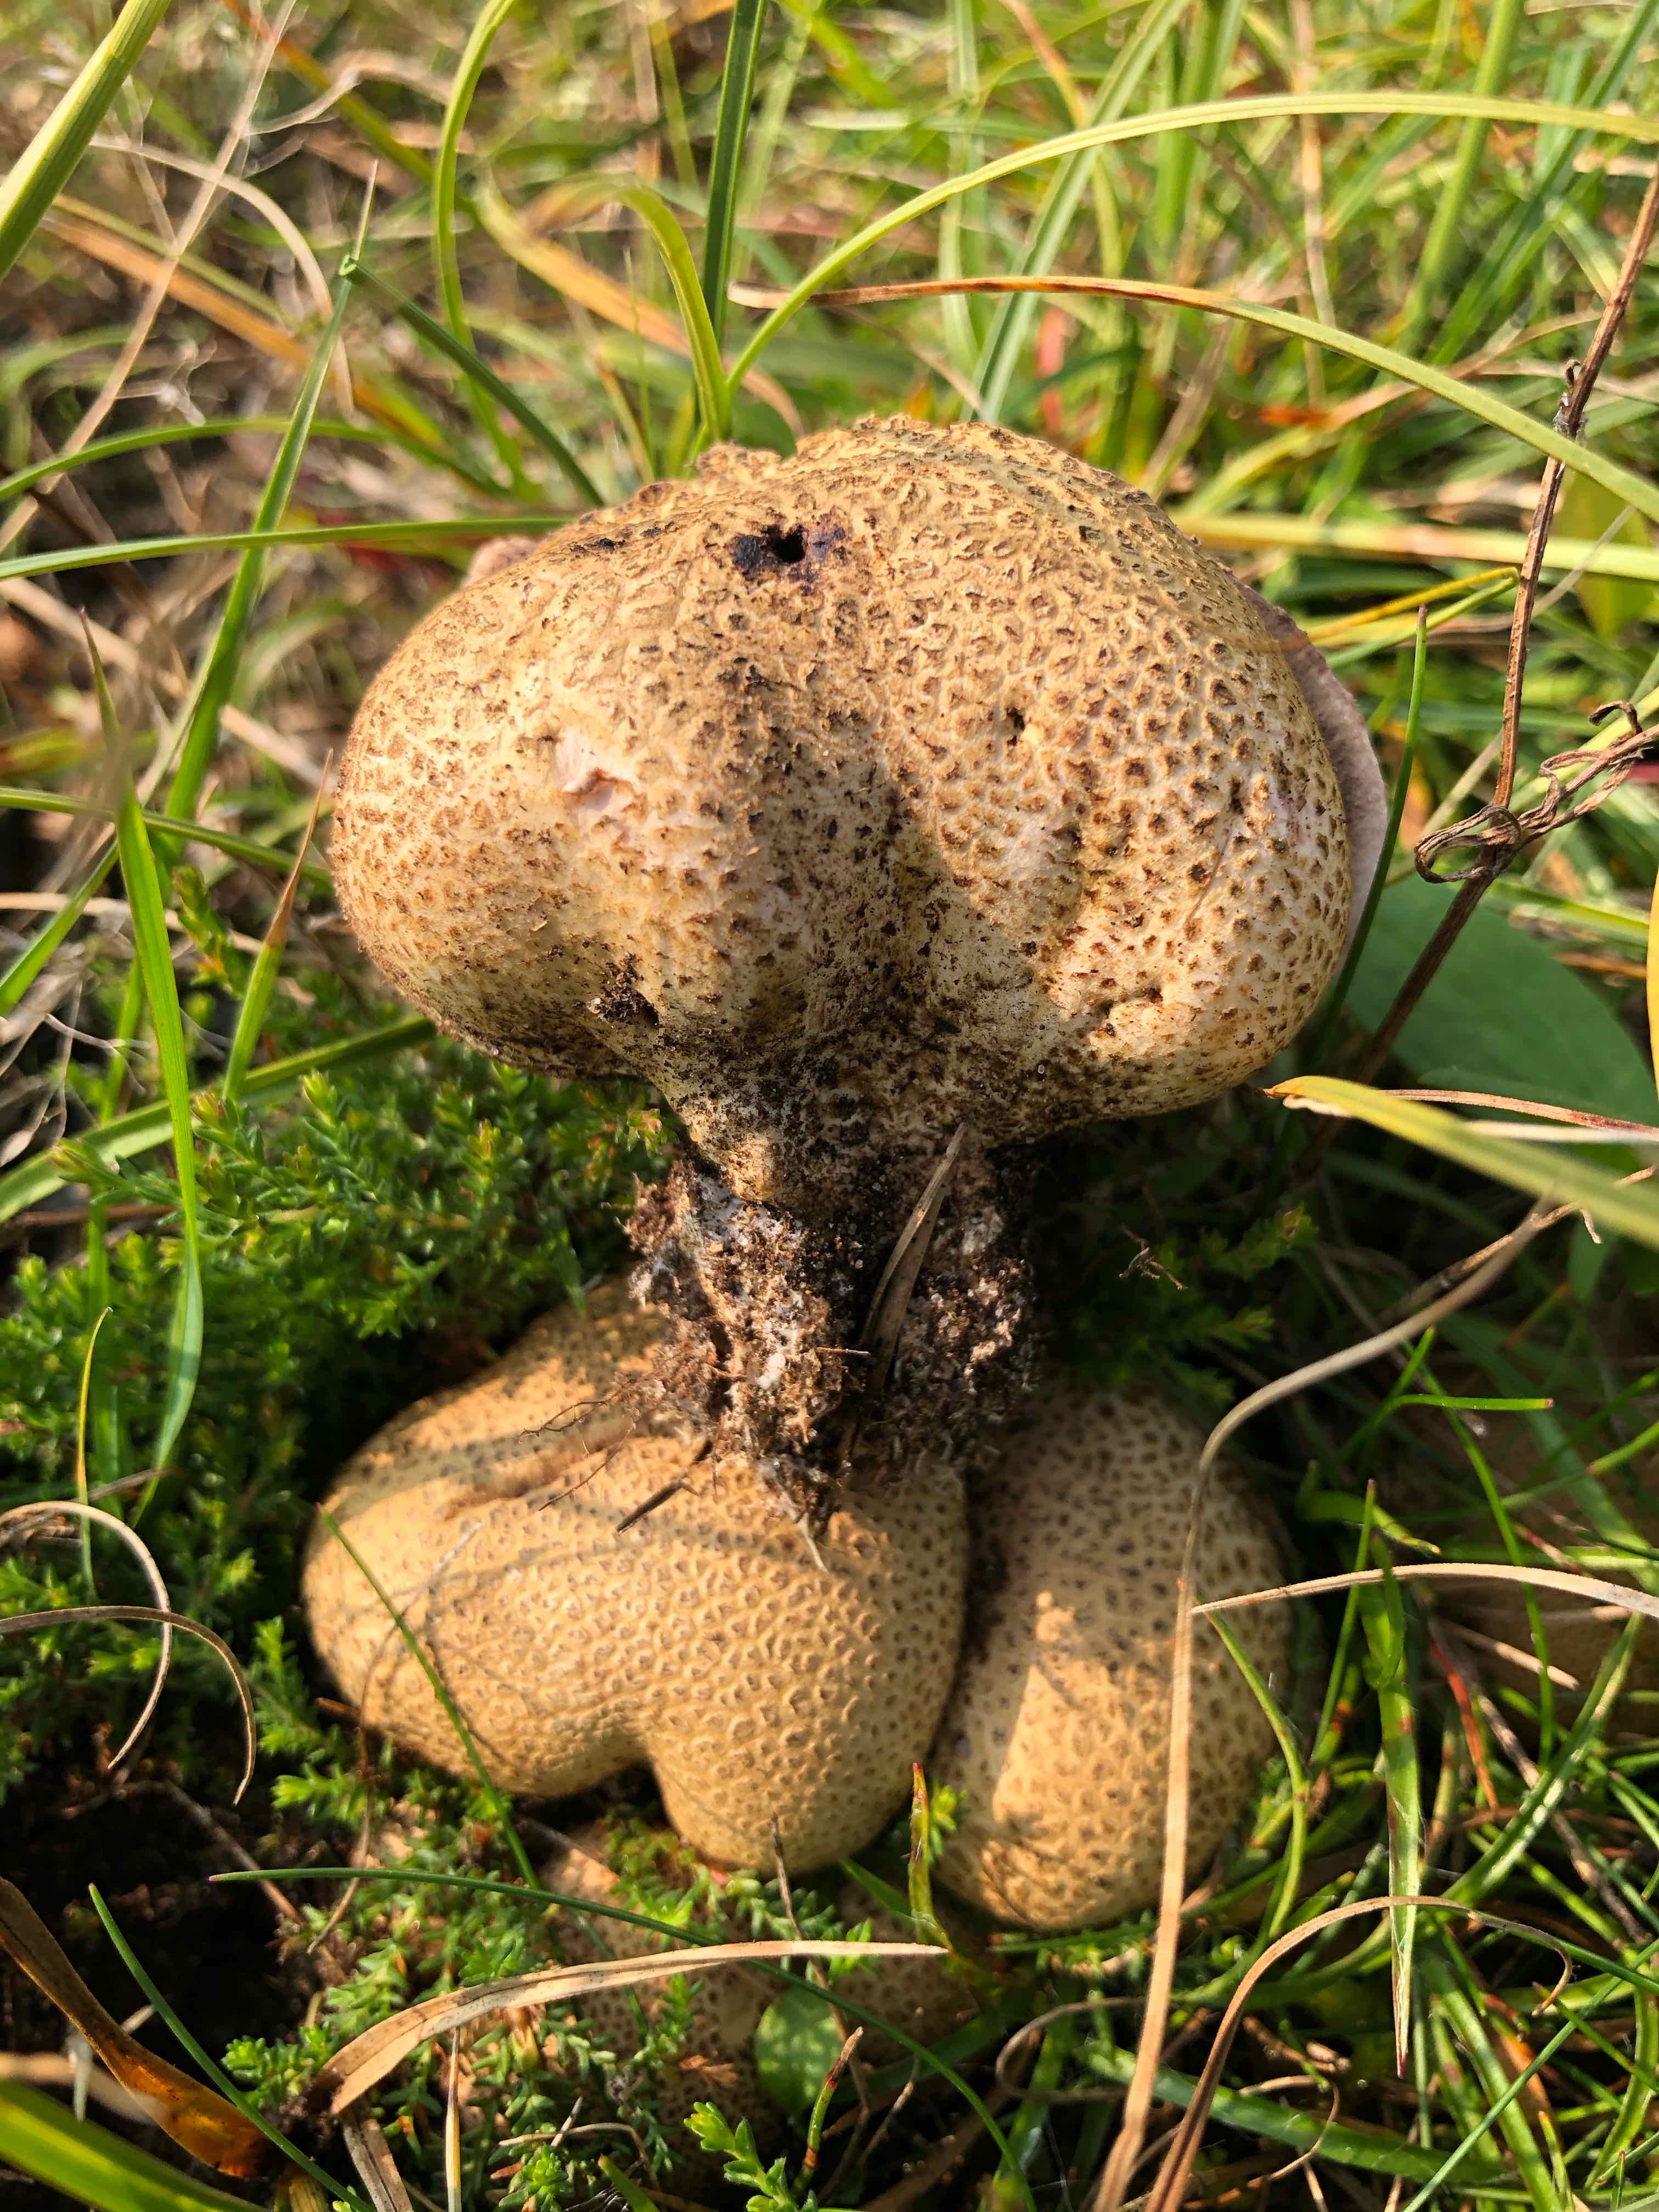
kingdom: Fungi
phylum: Basidiomycota
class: Agaricomycetes
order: Boletales
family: Sclerodermataceae
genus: Scleroderma
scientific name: Scleroderma citrinum
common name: almindelig bruskbold
